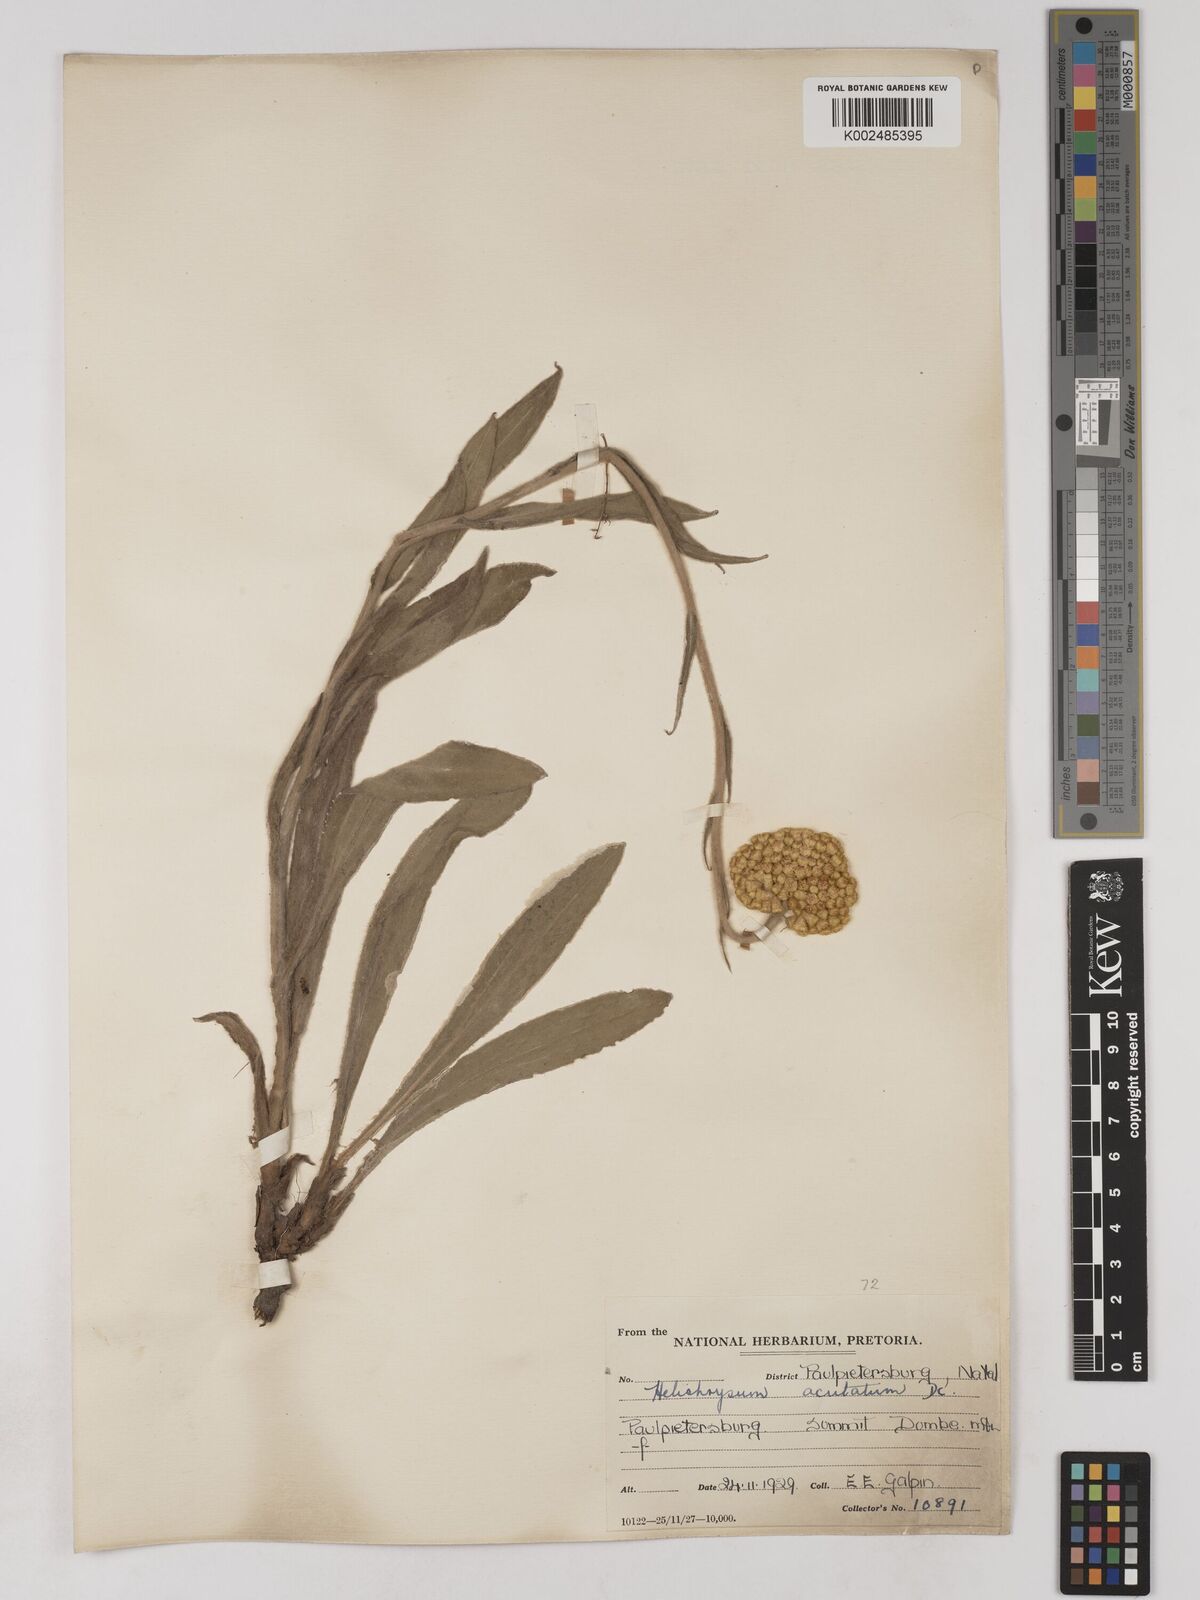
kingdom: Plantae
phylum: Tracheophyta
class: Magnoliopsida
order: Asterales
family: Asteraceae
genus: Helichrysum
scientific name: Helichrysum acutatum
